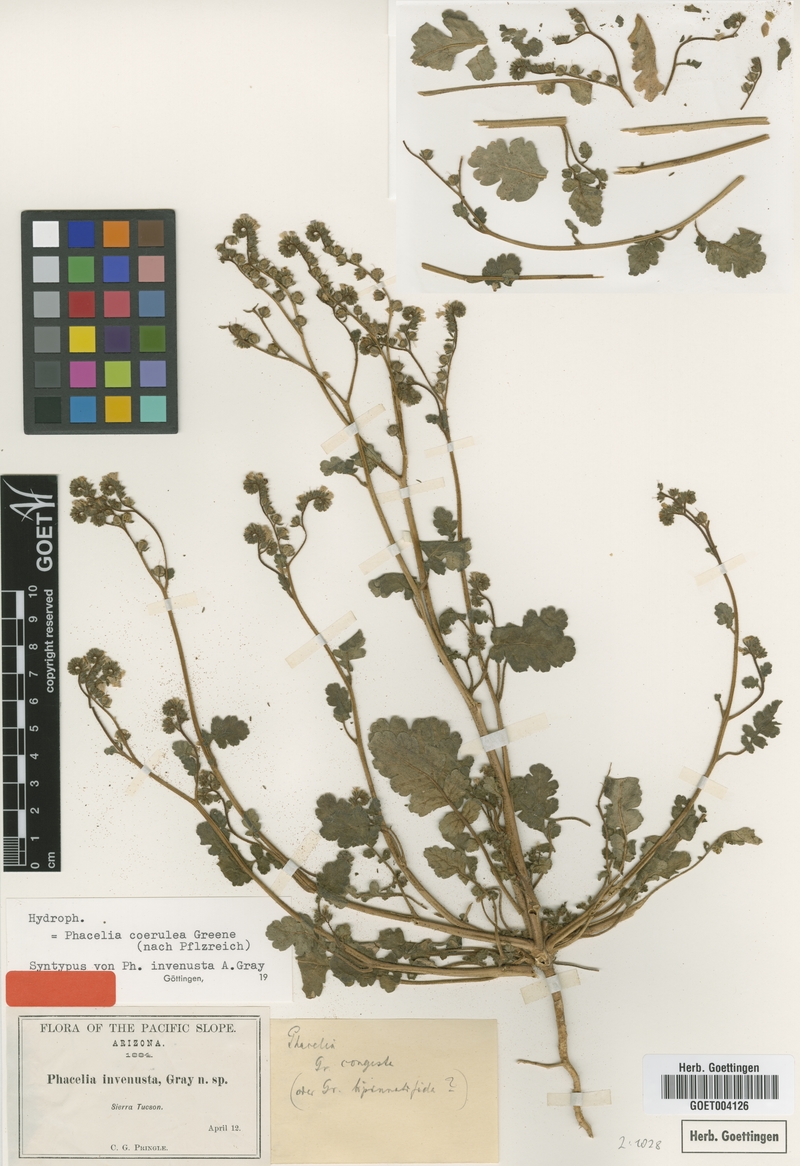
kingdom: Plantae
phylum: Tracheophyta
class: Magnoliopsida
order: Boraginales
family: Hydrophyllaceae
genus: Phacelia
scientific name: Phacelia coerulea
